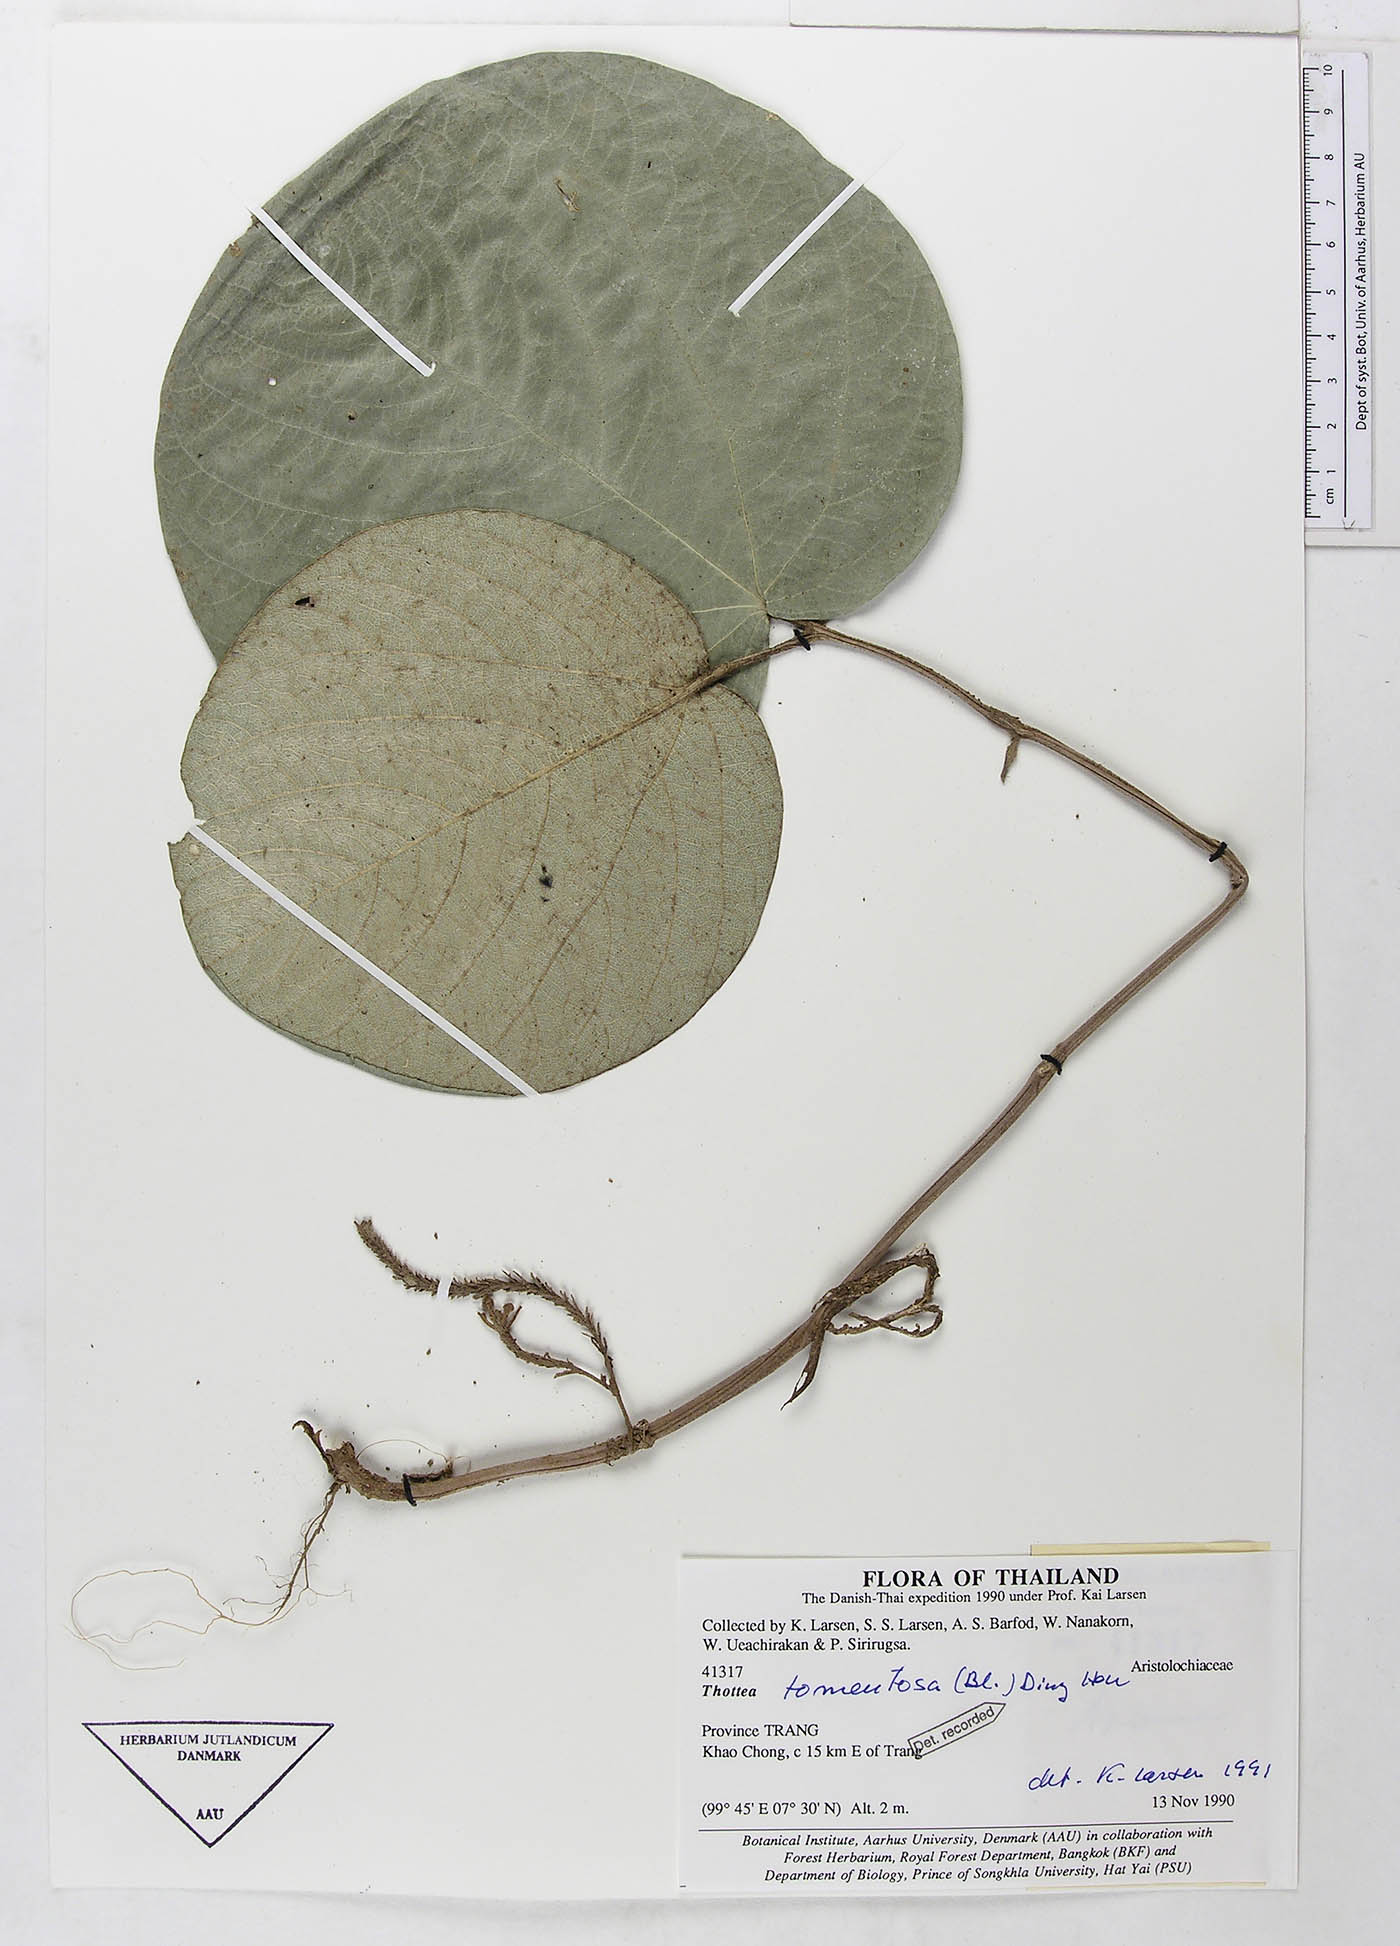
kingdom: Plantae
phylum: Tracheophyta
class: Magnoliopsida
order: Piperales
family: Aristolochiaceae
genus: Thottea
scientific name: Thottea tomentosa
